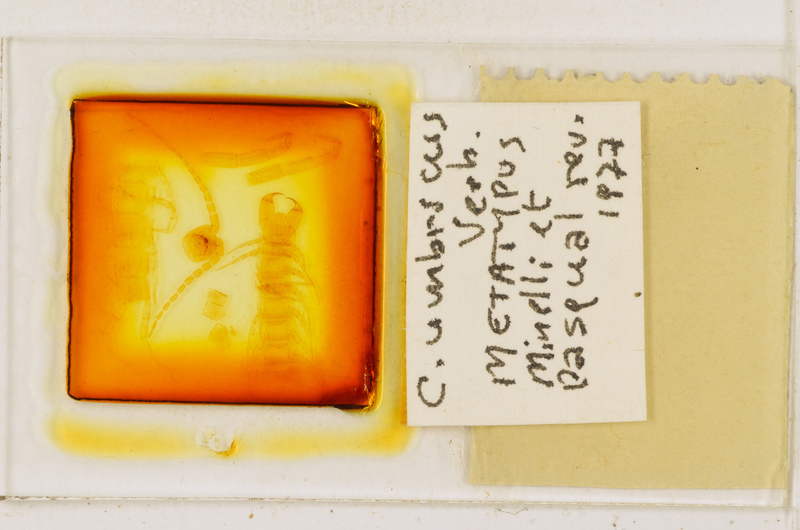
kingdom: Animalia
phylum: Arthropoda
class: Chilopoda
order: Scolopendromorpha
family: Cryptopidae
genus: Cryptops
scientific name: Cryptops umbricus
